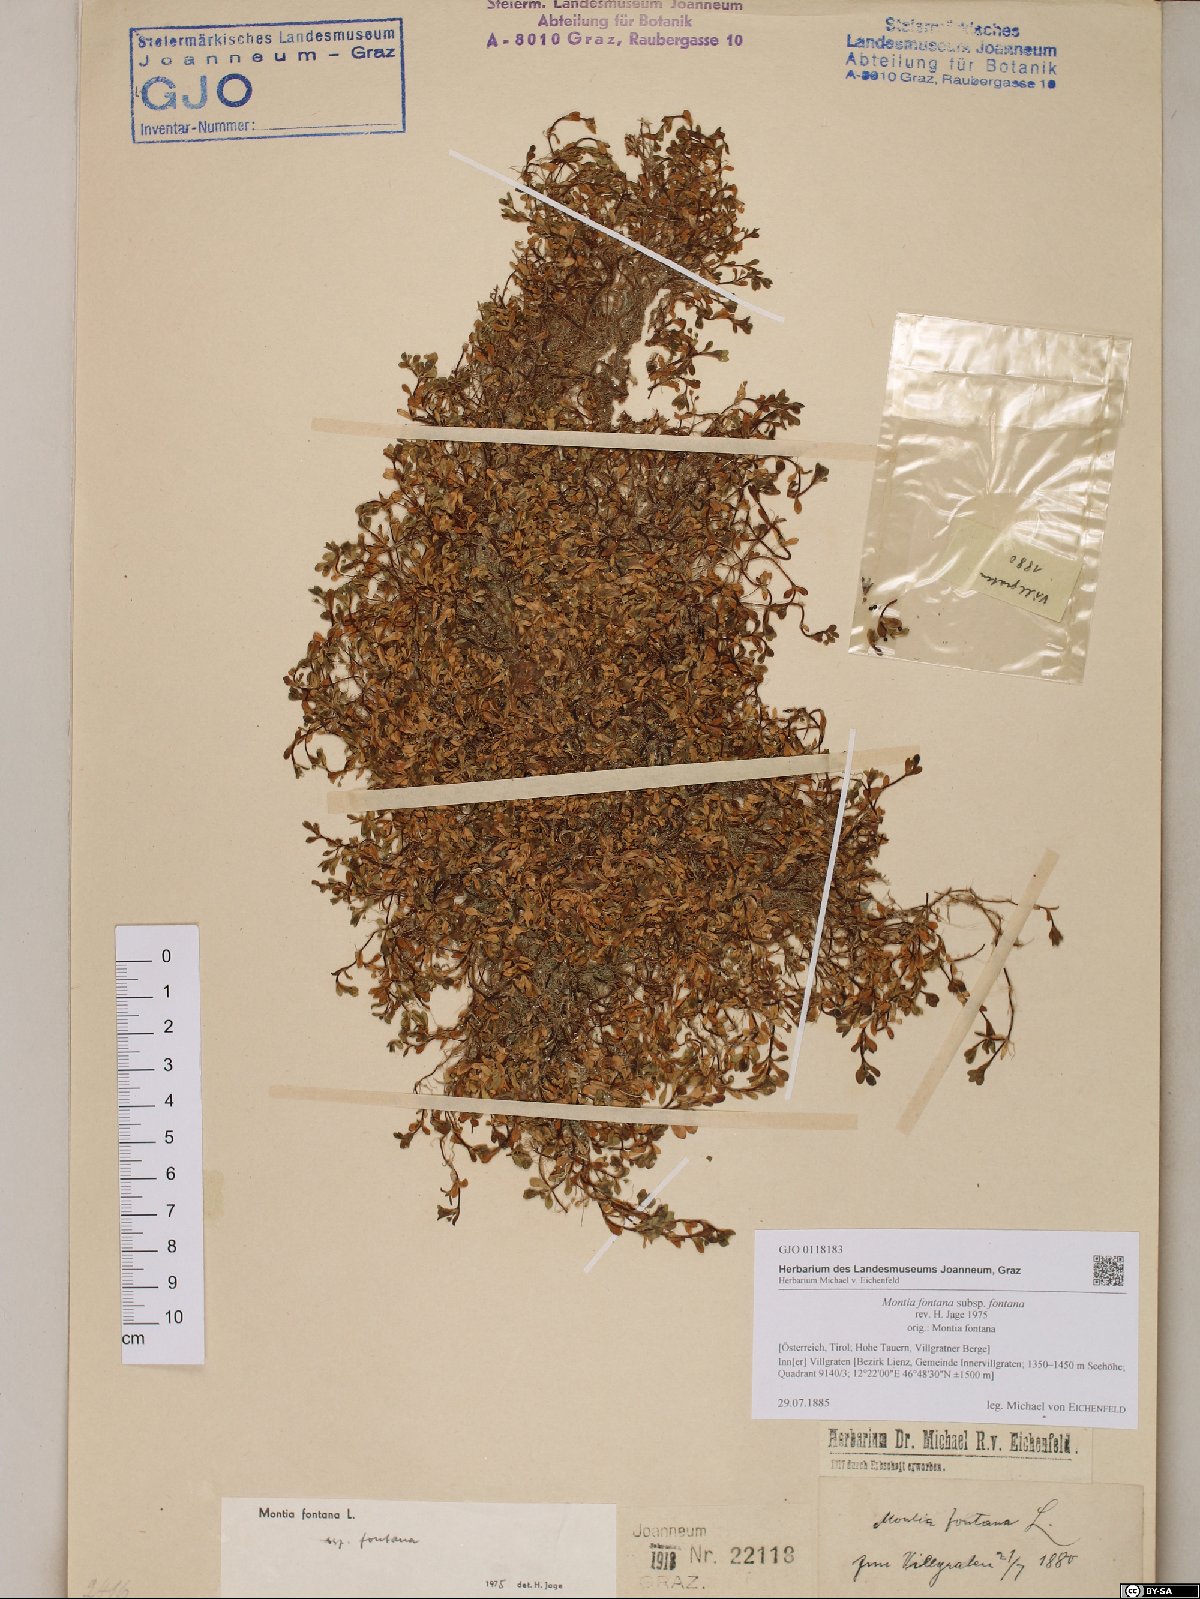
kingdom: Plantae
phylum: Tracheophyta
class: Magnoliopsida
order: Caryophyllales
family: Montiaceae
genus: Montia
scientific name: Montia fontana
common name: Blinks
